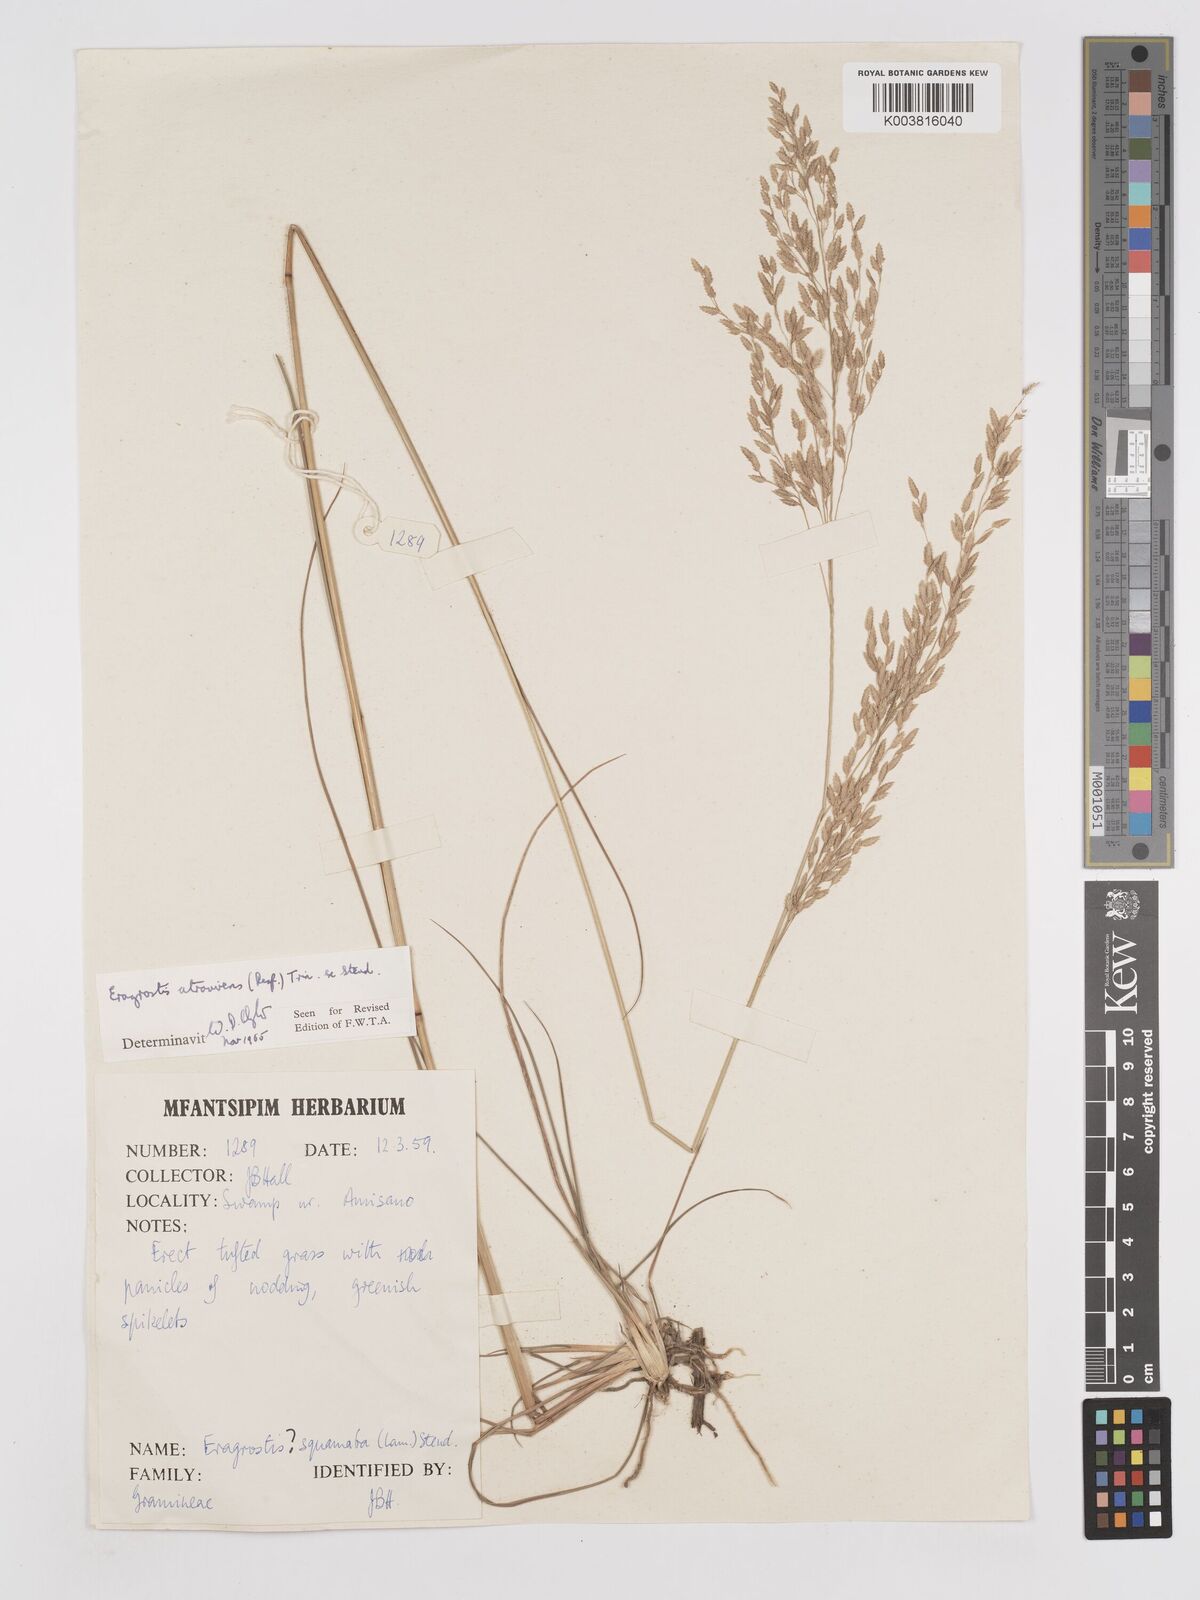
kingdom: Plantae
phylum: Tracheophyta
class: Liliopsida
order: Poales
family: Poaceae
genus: Eragrostis
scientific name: Eragrostis atrovirens
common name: Thalia lovegrass
